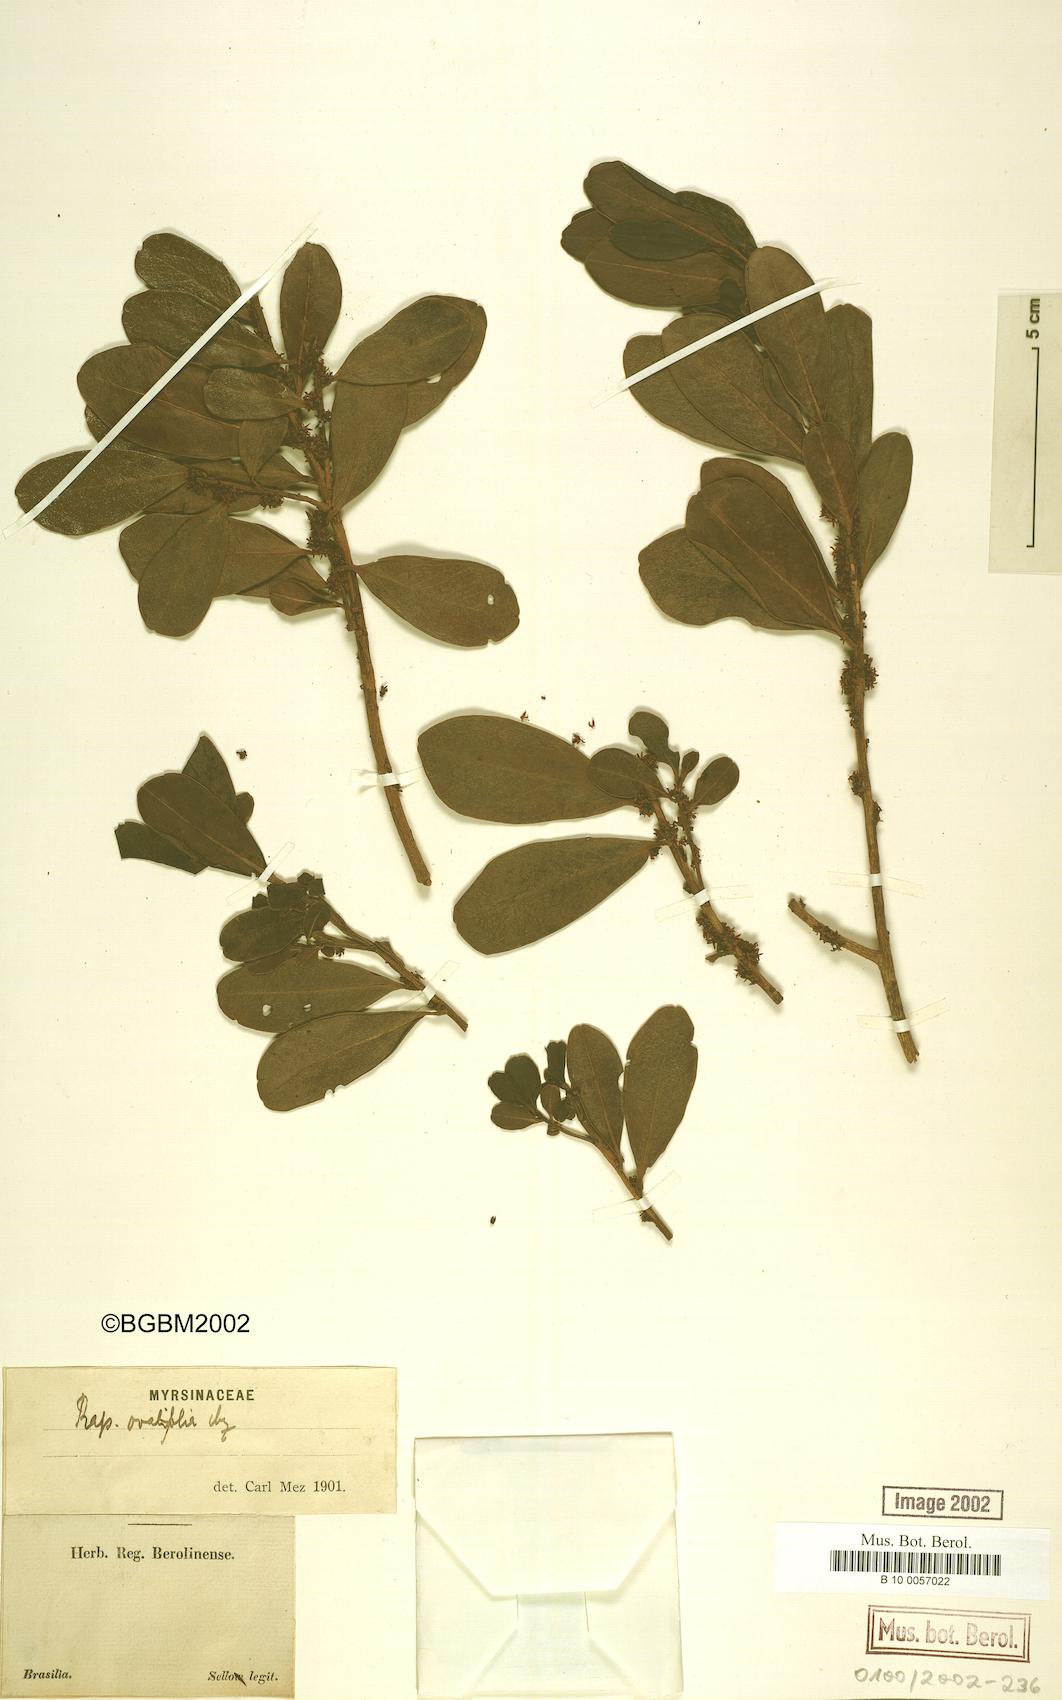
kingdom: Plantae
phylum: Tracheophyta
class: Magnoliopsida
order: Ericales
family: Primulaceae
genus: Myrsine
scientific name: Myrsine miquelii
